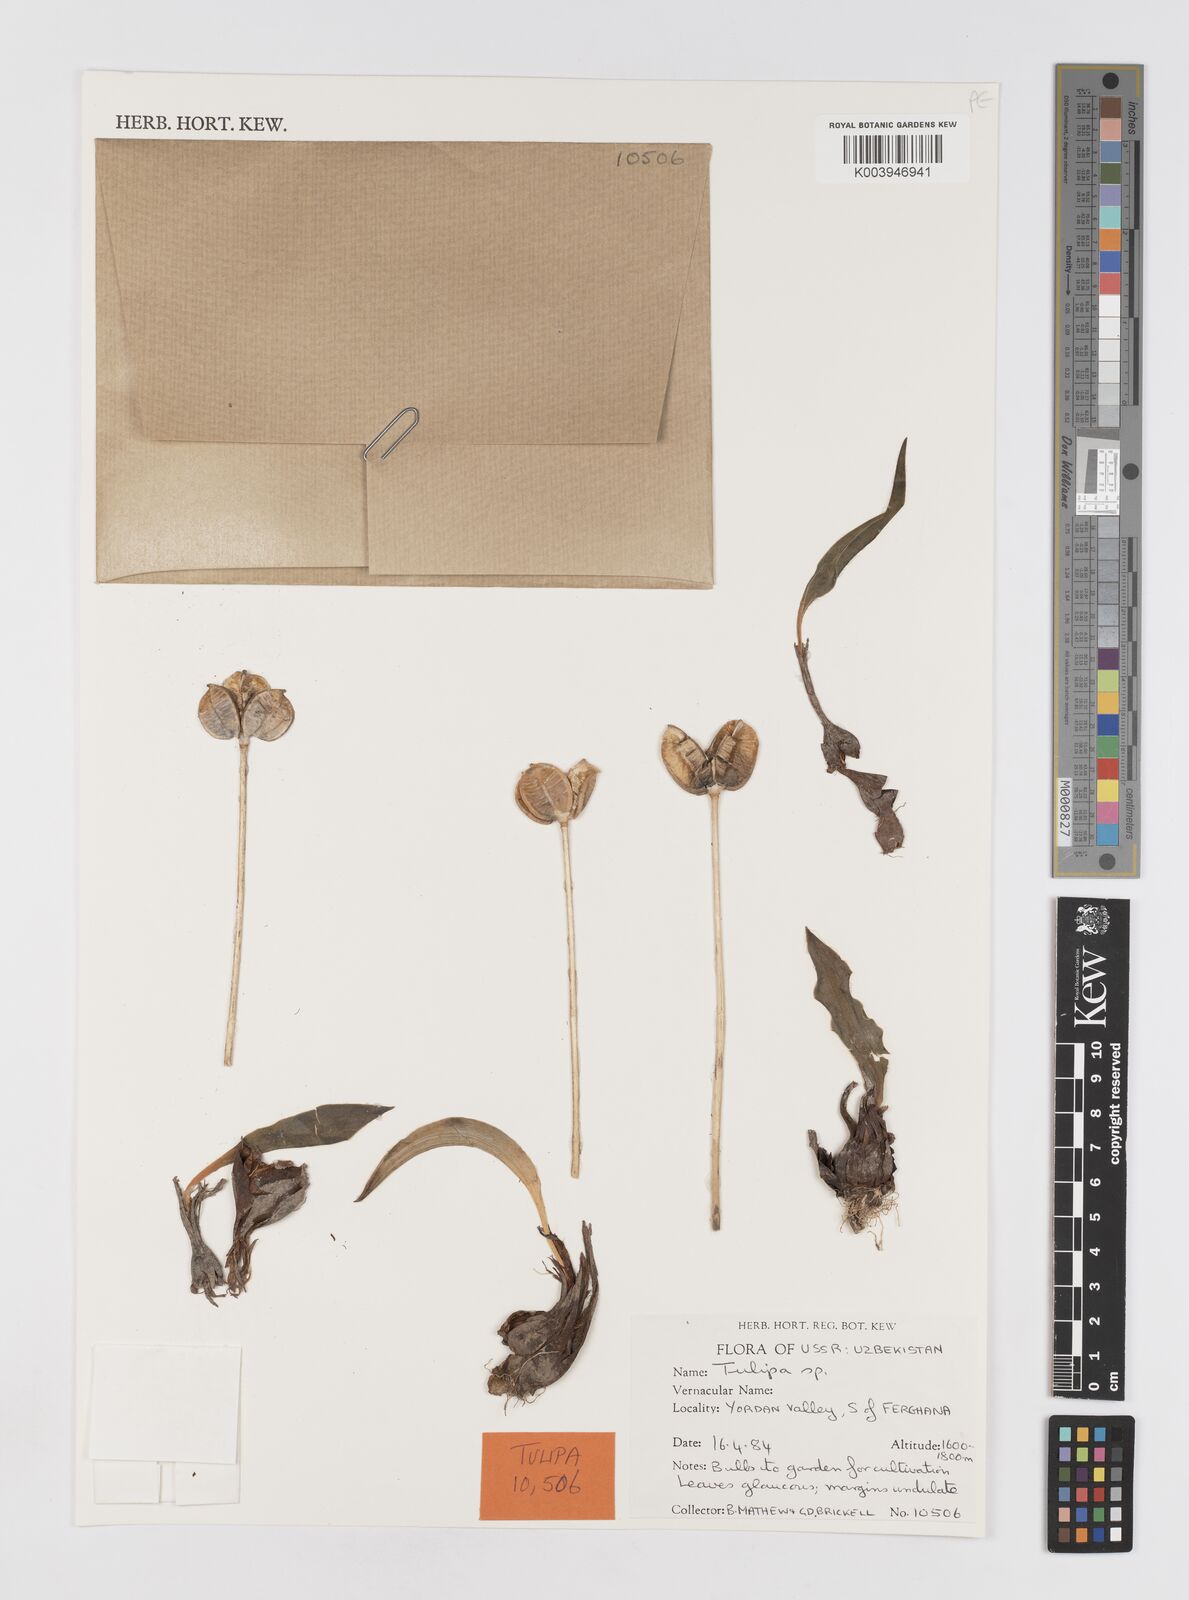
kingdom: Plantae
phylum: Tracheophyta
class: Liliopsida
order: Liliales
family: Liliaceae
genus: Tulipa
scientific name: Tulipa
